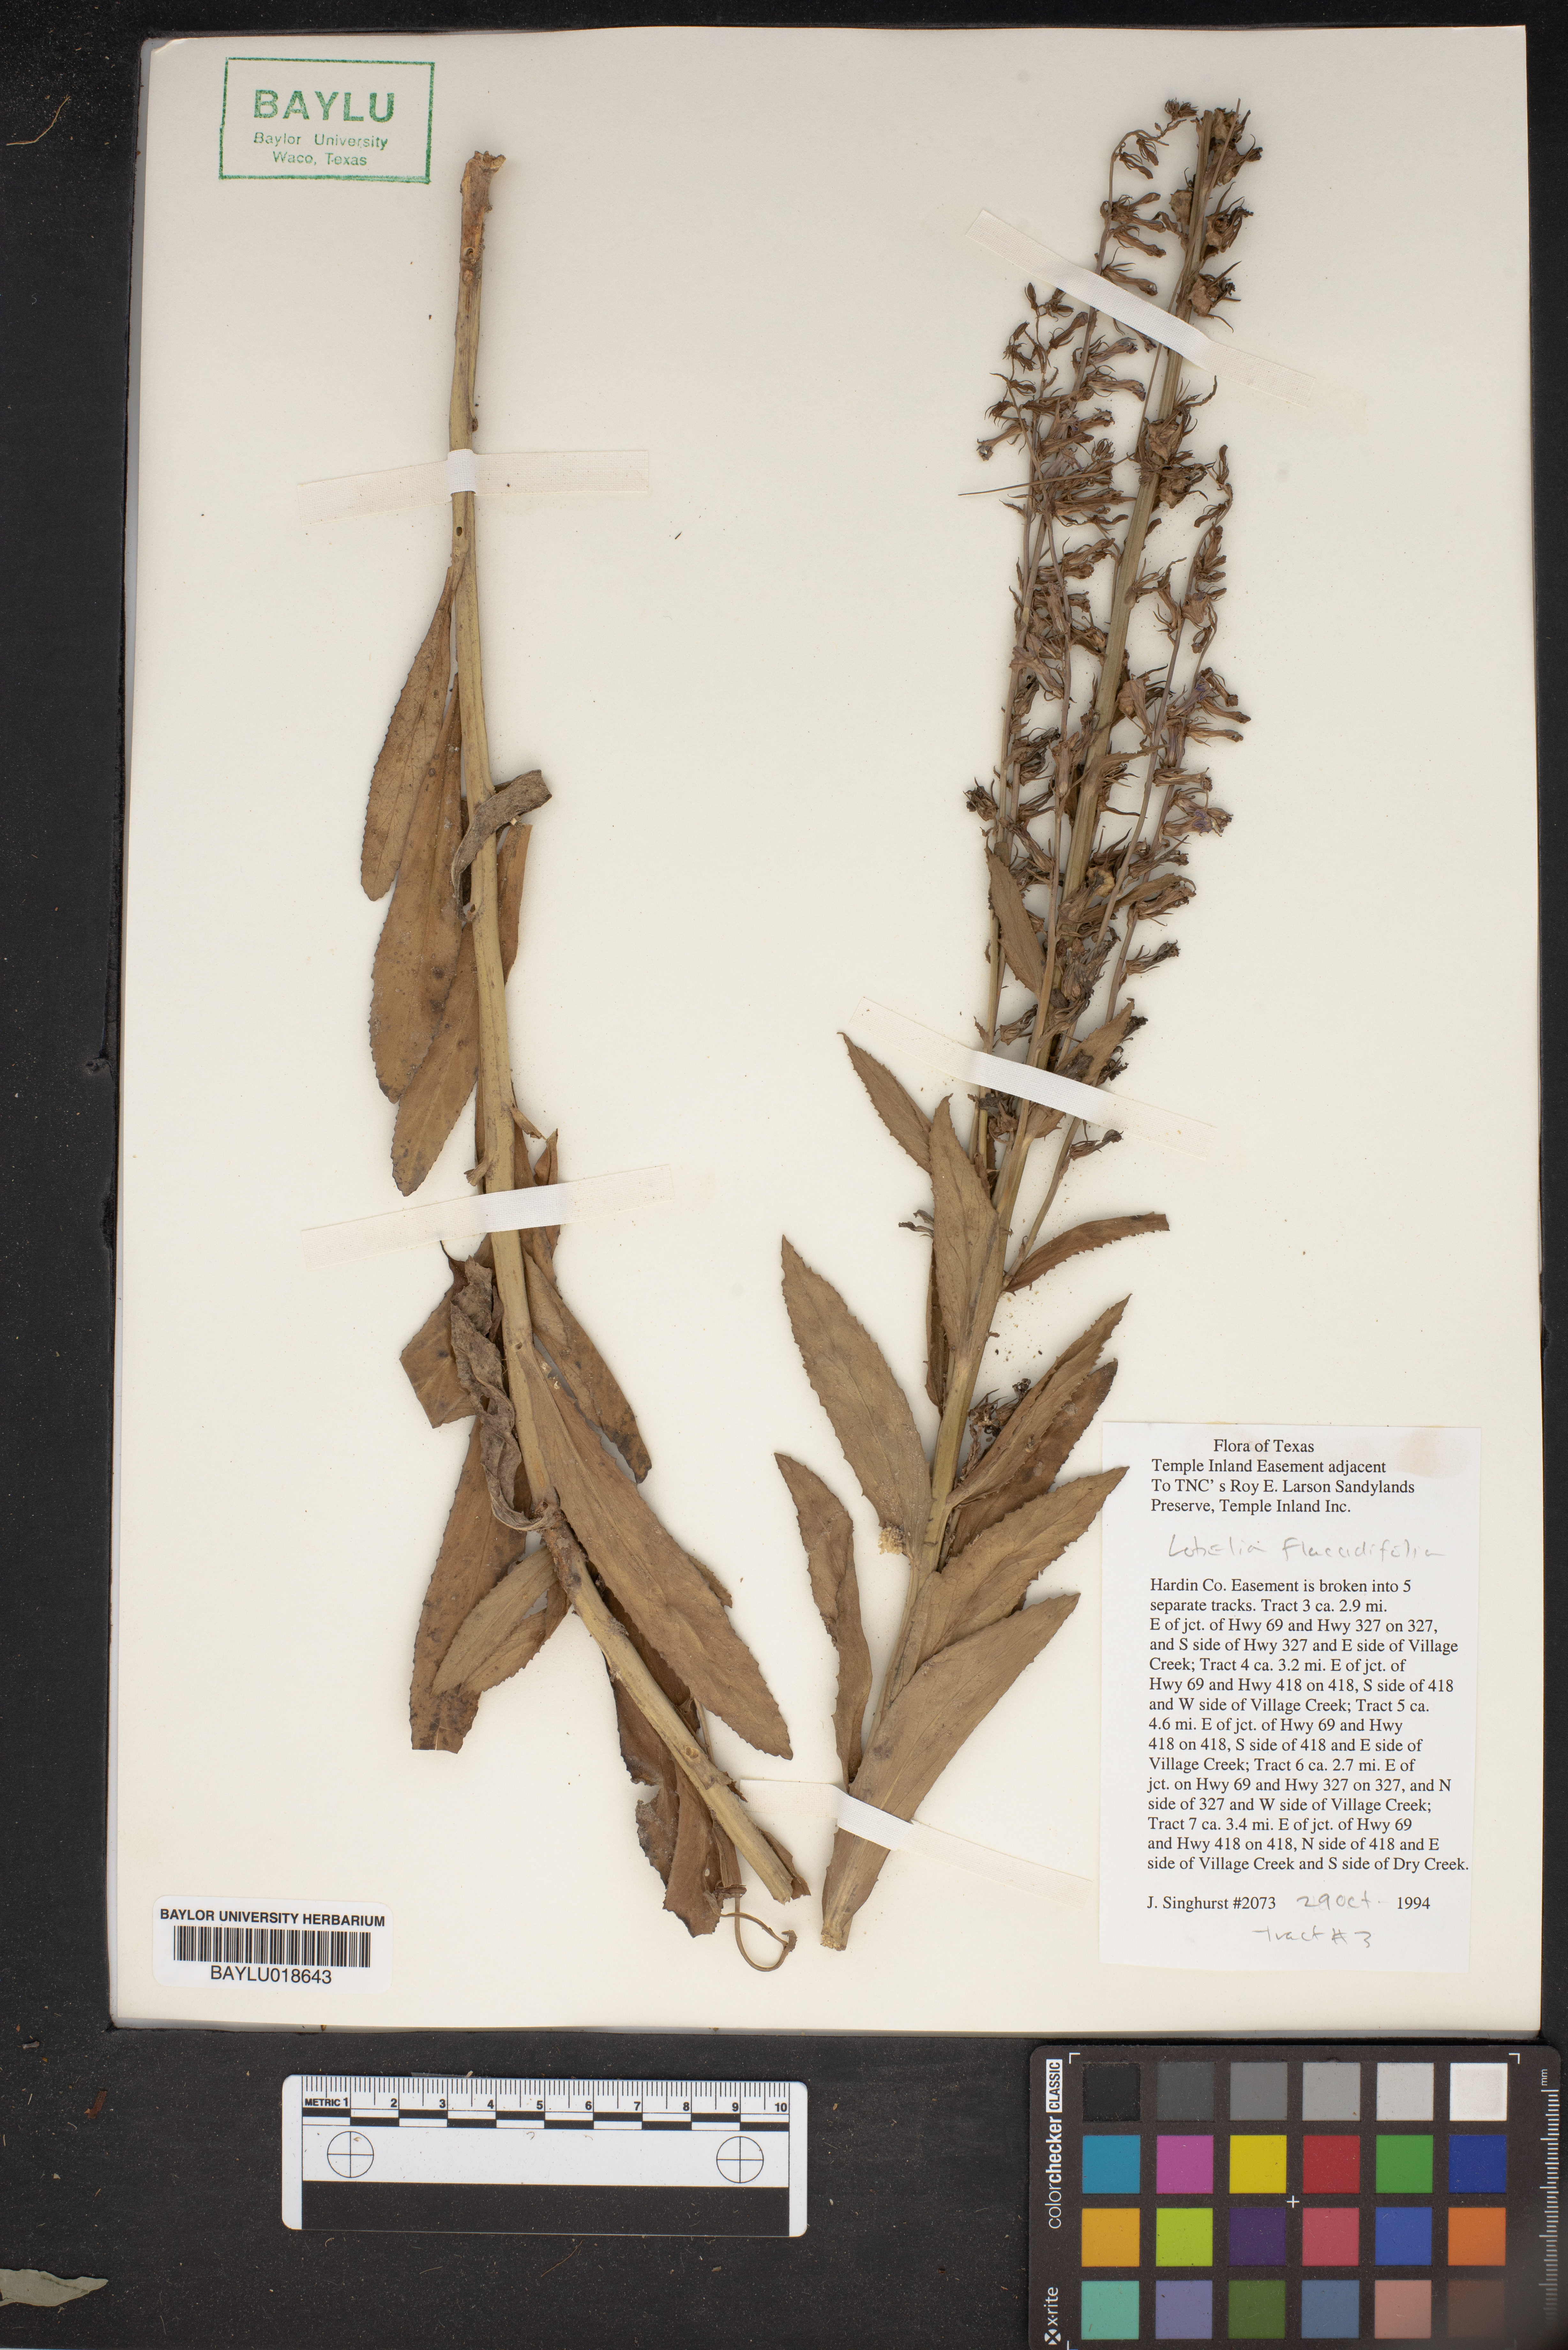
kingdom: Plantae
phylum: Tracheophyta
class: Magnoliopsida
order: Asterales
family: Campanulaceae
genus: Lobelia
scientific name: Lobelia flaccidifolia
